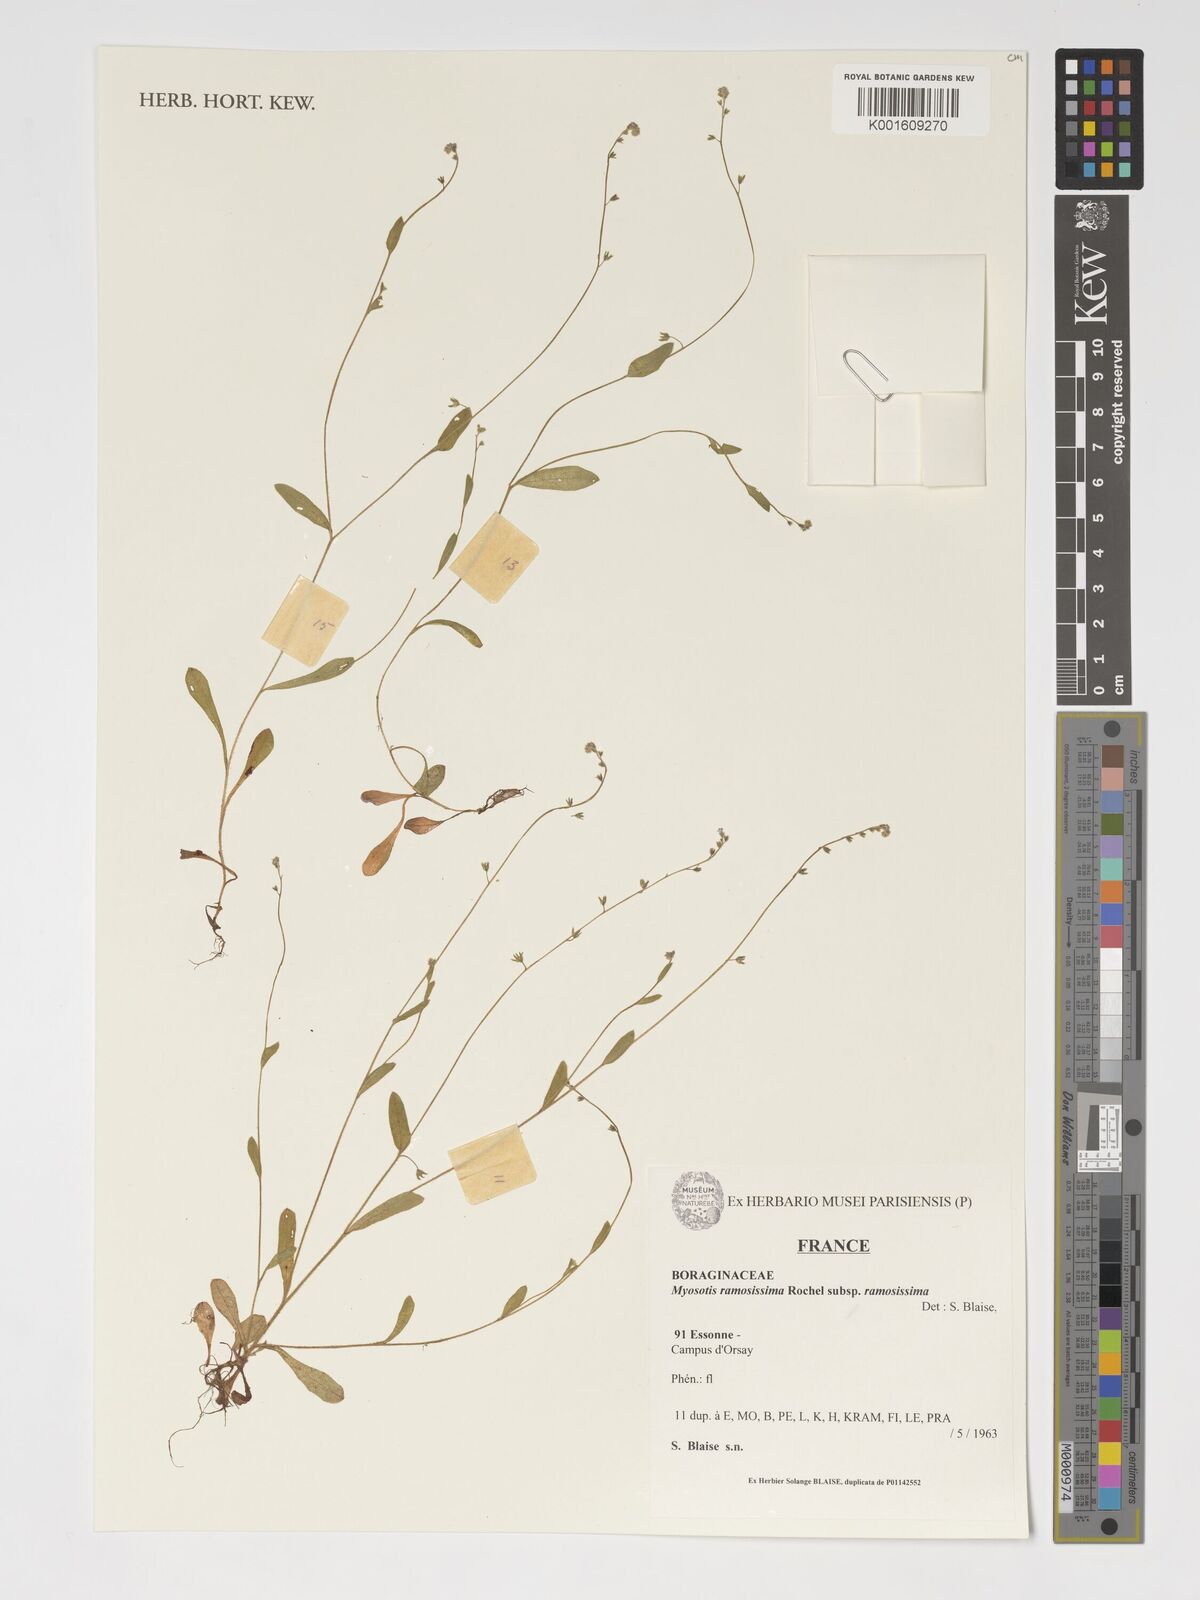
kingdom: Plantae
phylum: Tracheophyta
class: Magnoliopsida
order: Boraginales
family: Boraginaceae
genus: Myosotis
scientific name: Myosotis ramosissima
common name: Early forget-me-not
